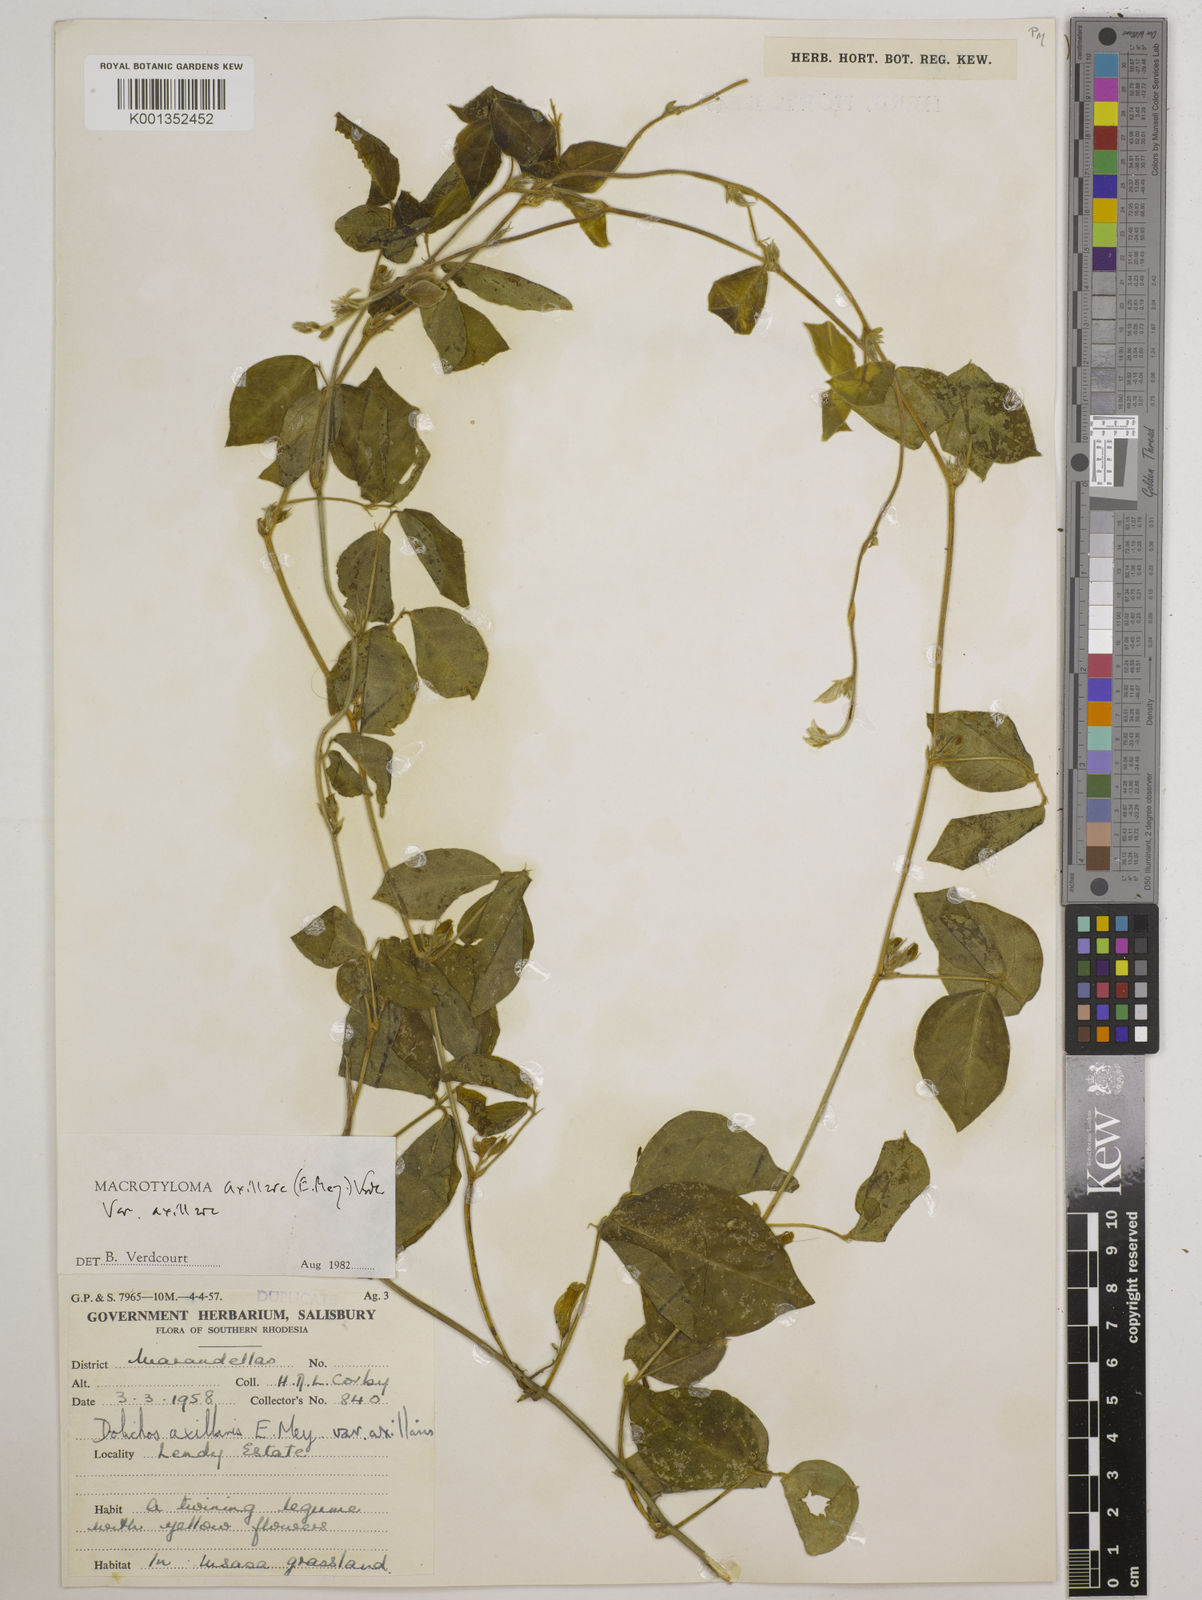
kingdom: Plantae
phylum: Tracheophyta
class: Magnoliopsida
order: Fabales
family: Fabaceae
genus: Macrotyloma
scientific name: Macrotyloma axillare
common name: Perennial horsegram
